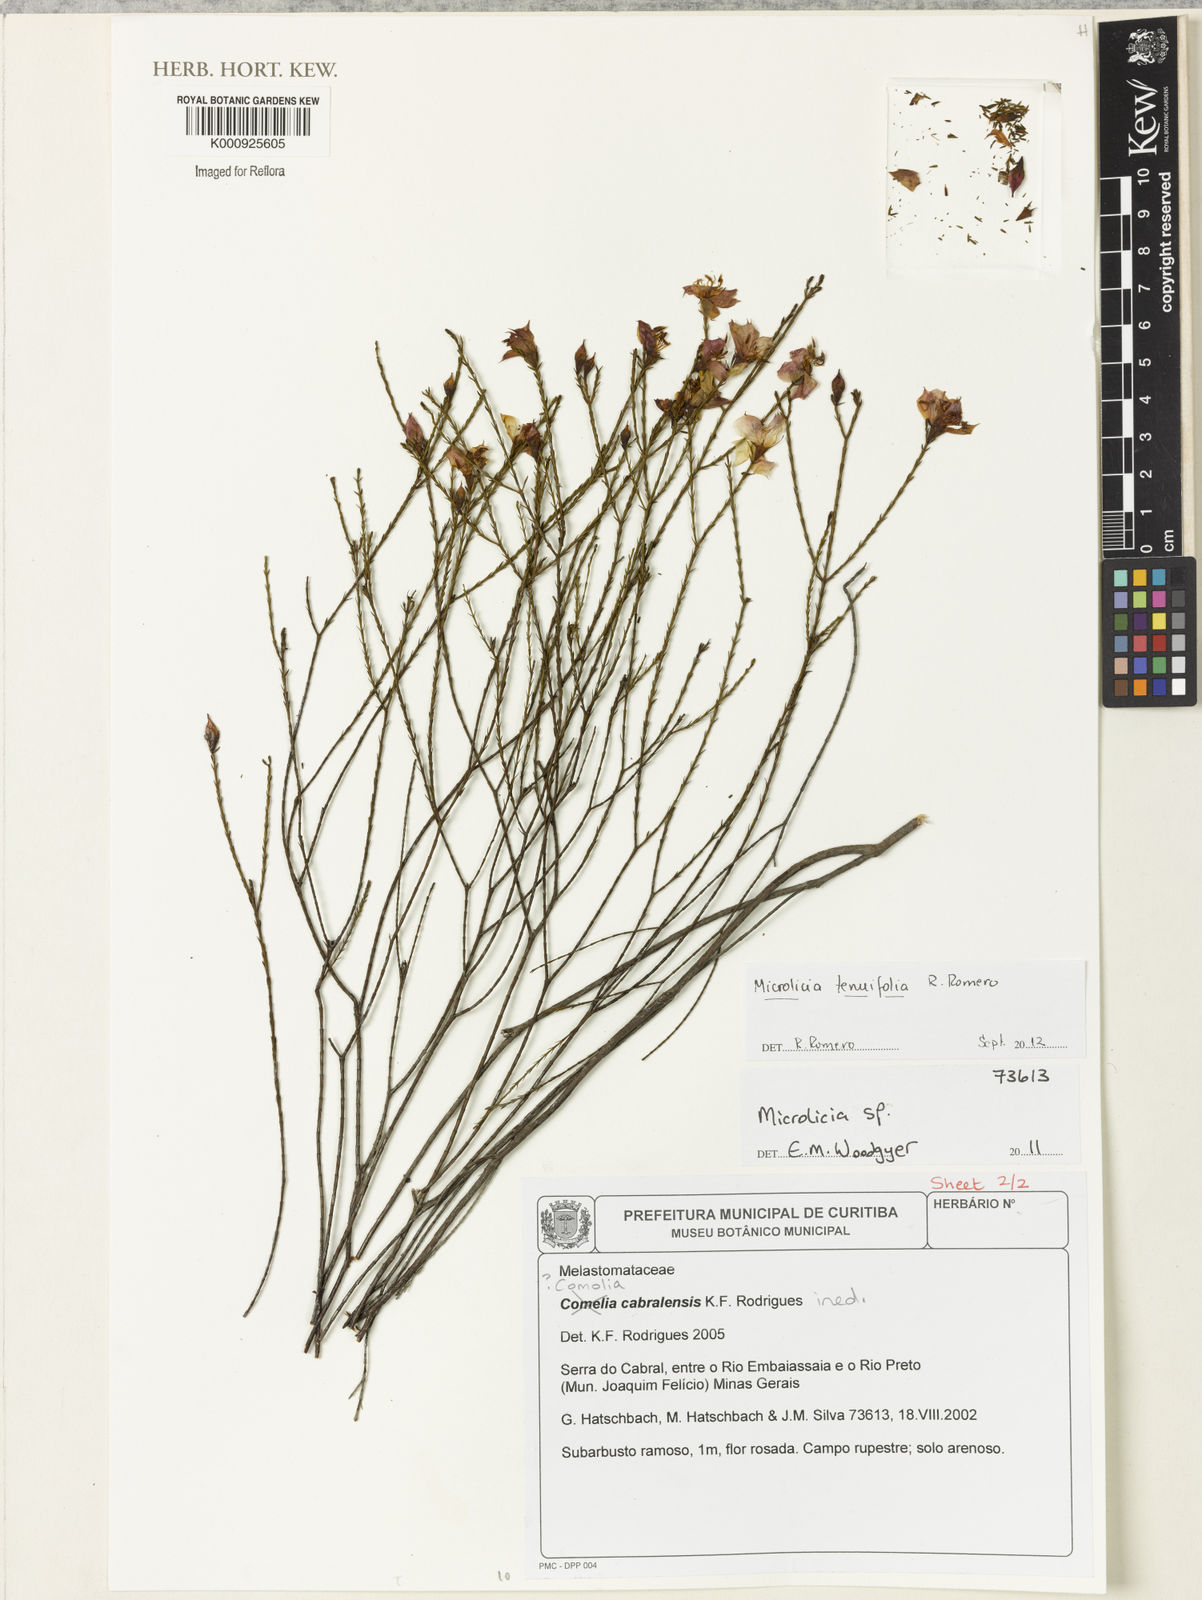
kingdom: Plantae
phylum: Tracheophyta
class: Magnoliopsida
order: Myrtales
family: Melastomataceae
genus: Microlicia
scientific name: Microlicia tenuifolia
